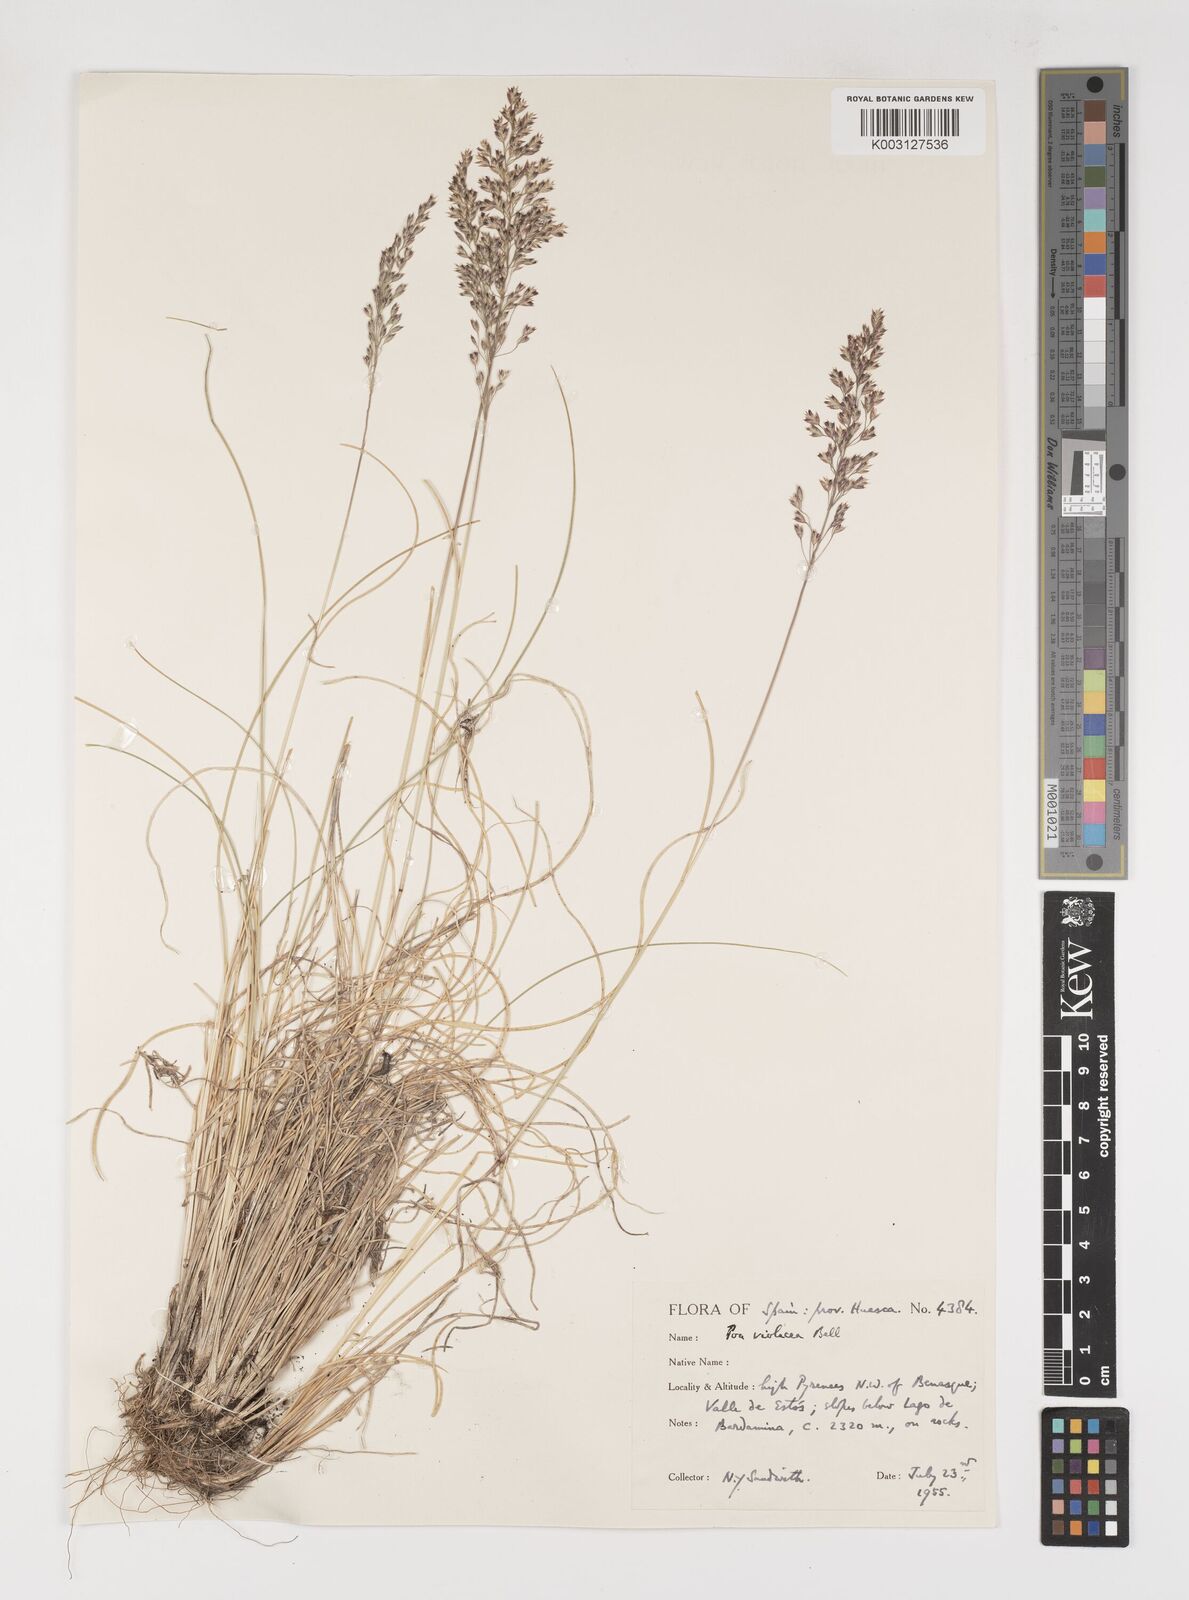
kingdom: Plantae
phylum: Tracheophyta
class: Liliopsida
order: Poales
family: Poaceae
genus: Bellardiochloa
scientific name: Bellardiochloa variegata
